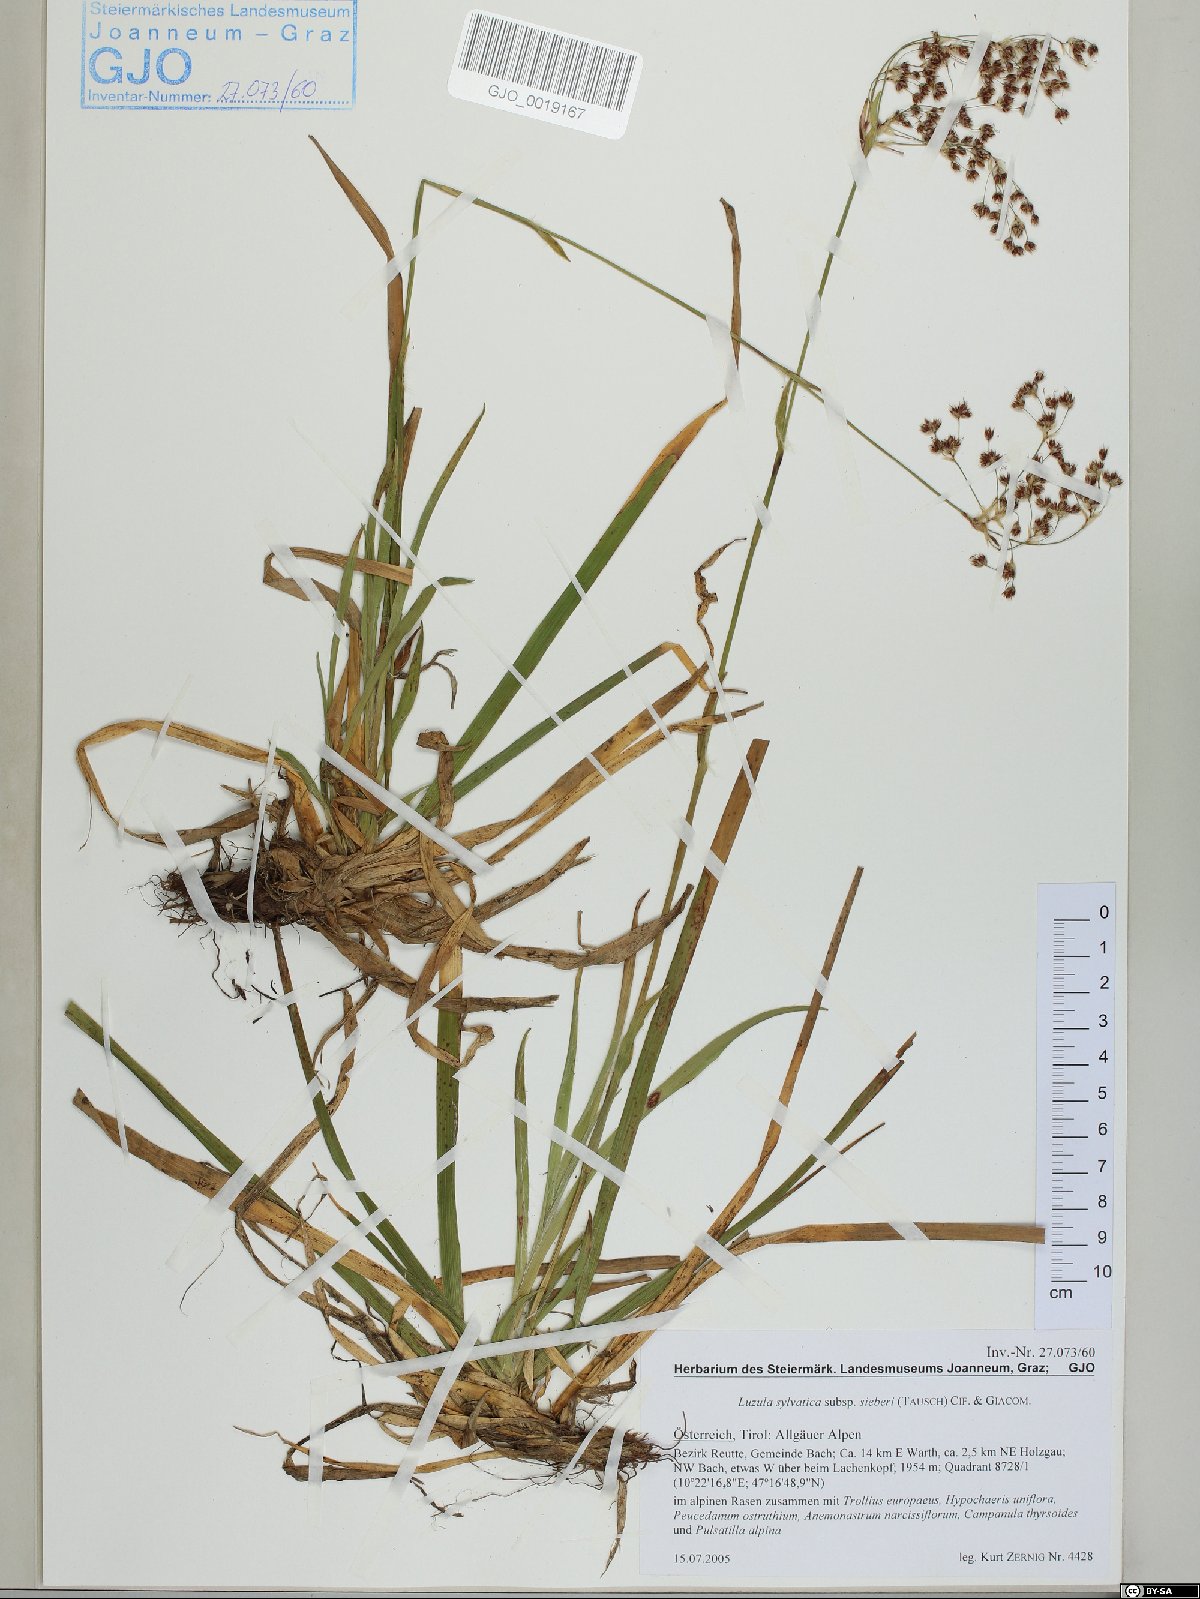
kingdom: Plantae
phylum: Tracheophyta
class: Liliopsida
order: Poales
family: Juncaceae
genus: Luzula
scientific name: Luzula sylvatica
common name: Great wood-rush
